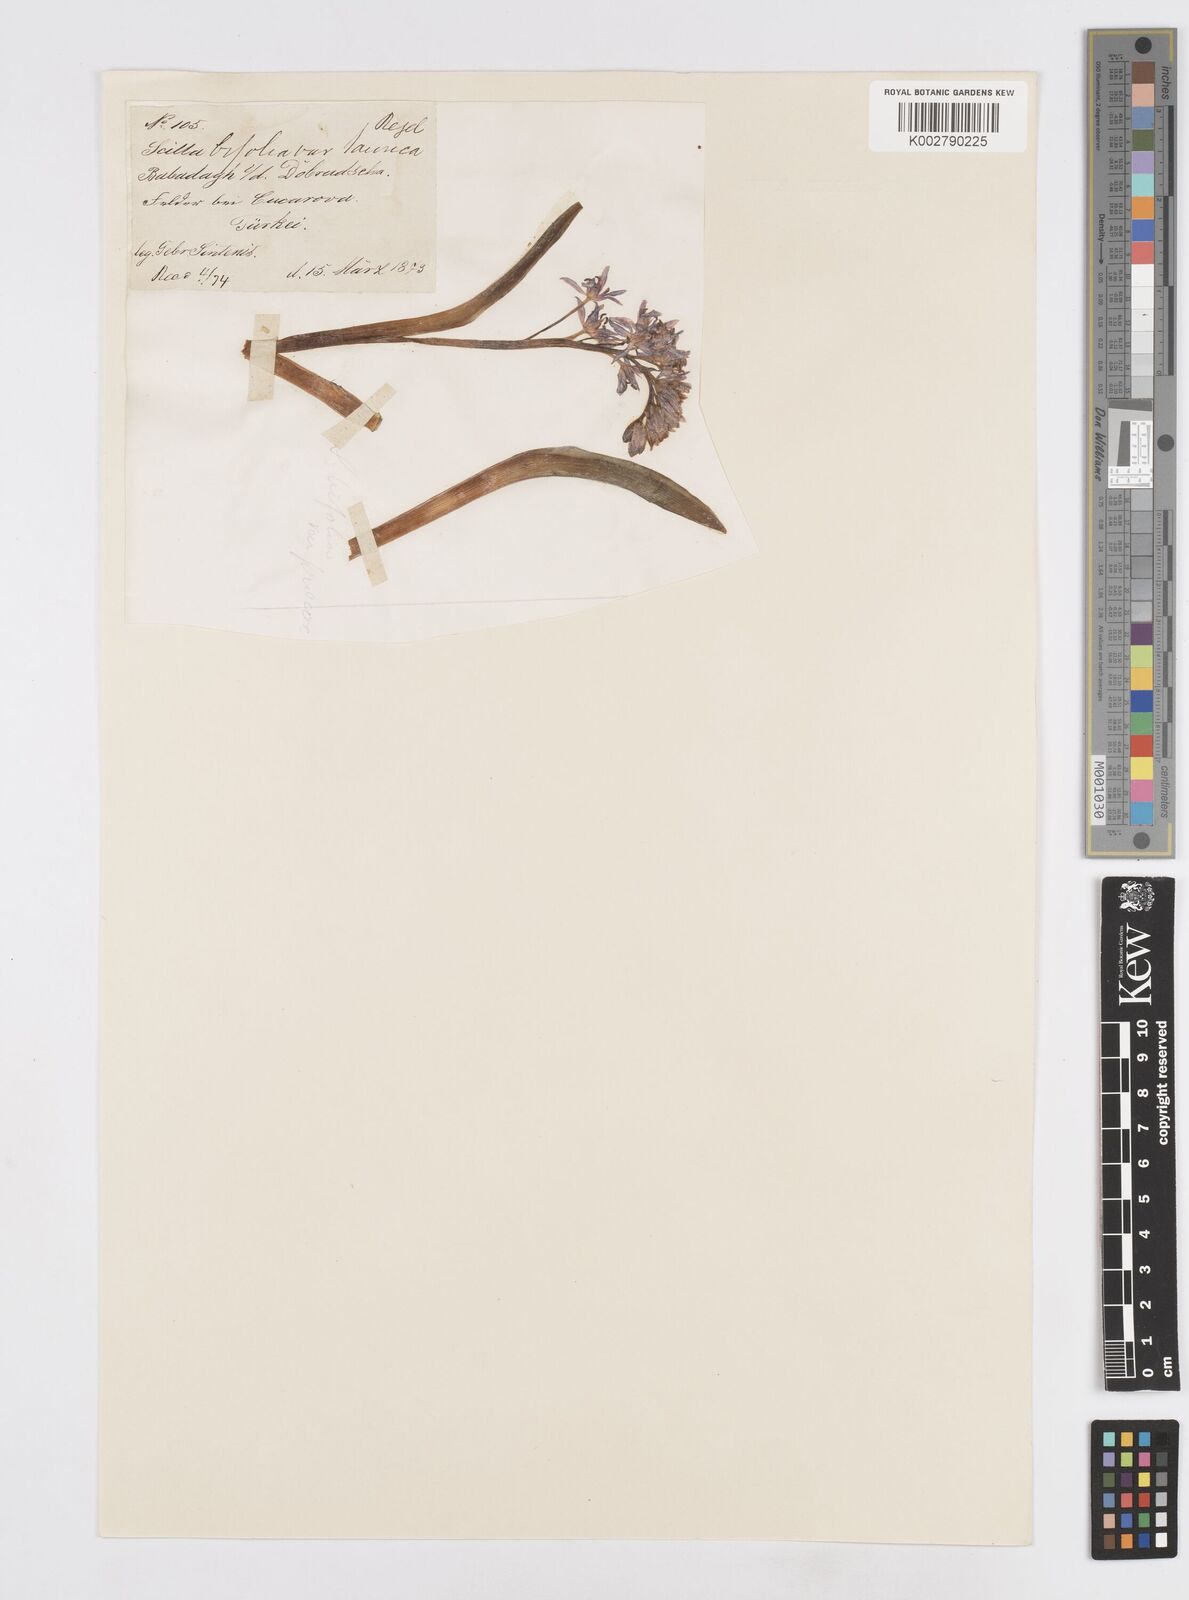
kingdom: Plantae
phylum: Tracheophyta
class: Liliopsida
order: Asparagales
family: Asparagaceae
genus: Scilla
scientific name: Scilla bifolia
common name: Alpine squill
